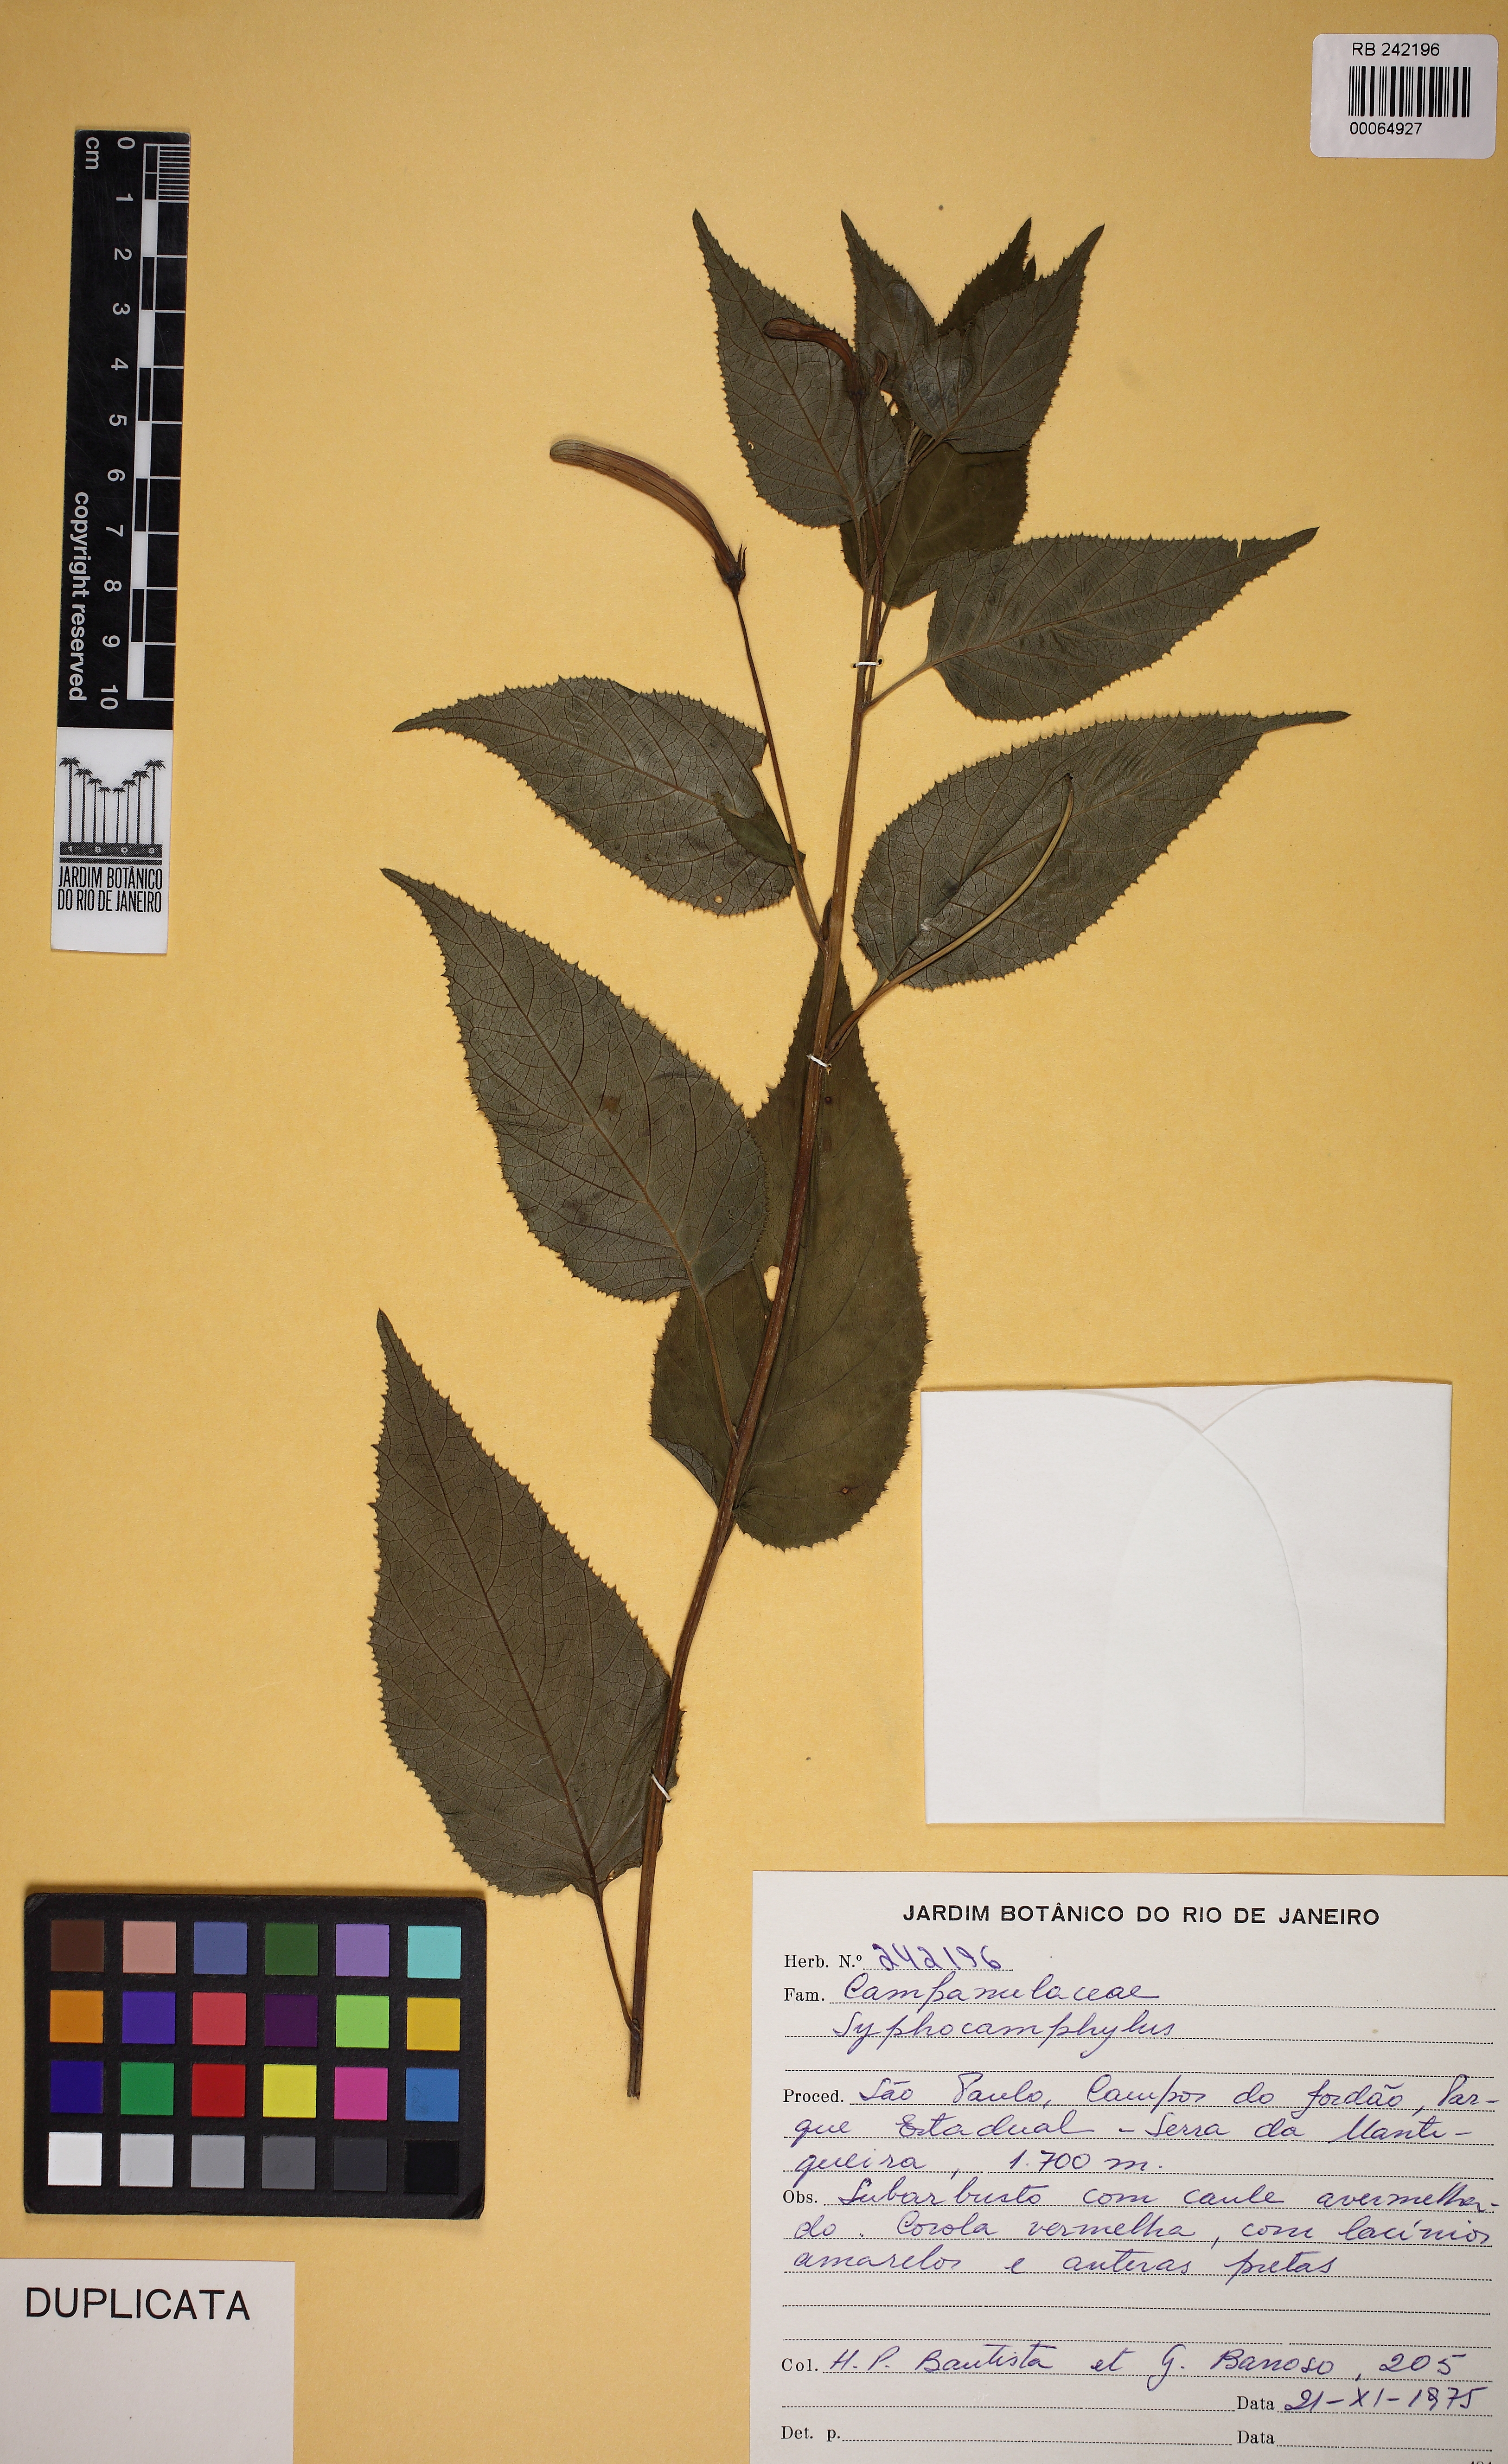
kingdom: Plantae
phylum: Tracheophyta
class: Magnoliopsida
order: Asterales
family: Campanulaceae
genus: Siphocampylus
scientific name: Siphocampylus longipedunculatus
